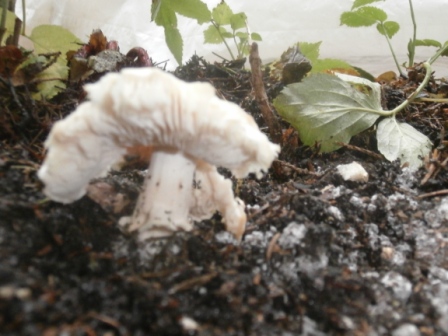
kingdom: Fungi
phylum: Basidiomycota
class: Agaricomycetes
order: Agaricales
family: Amanitaceae
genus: Limacellopsis
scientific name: Limacellopsis guttata
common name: tåre-snekkehat
